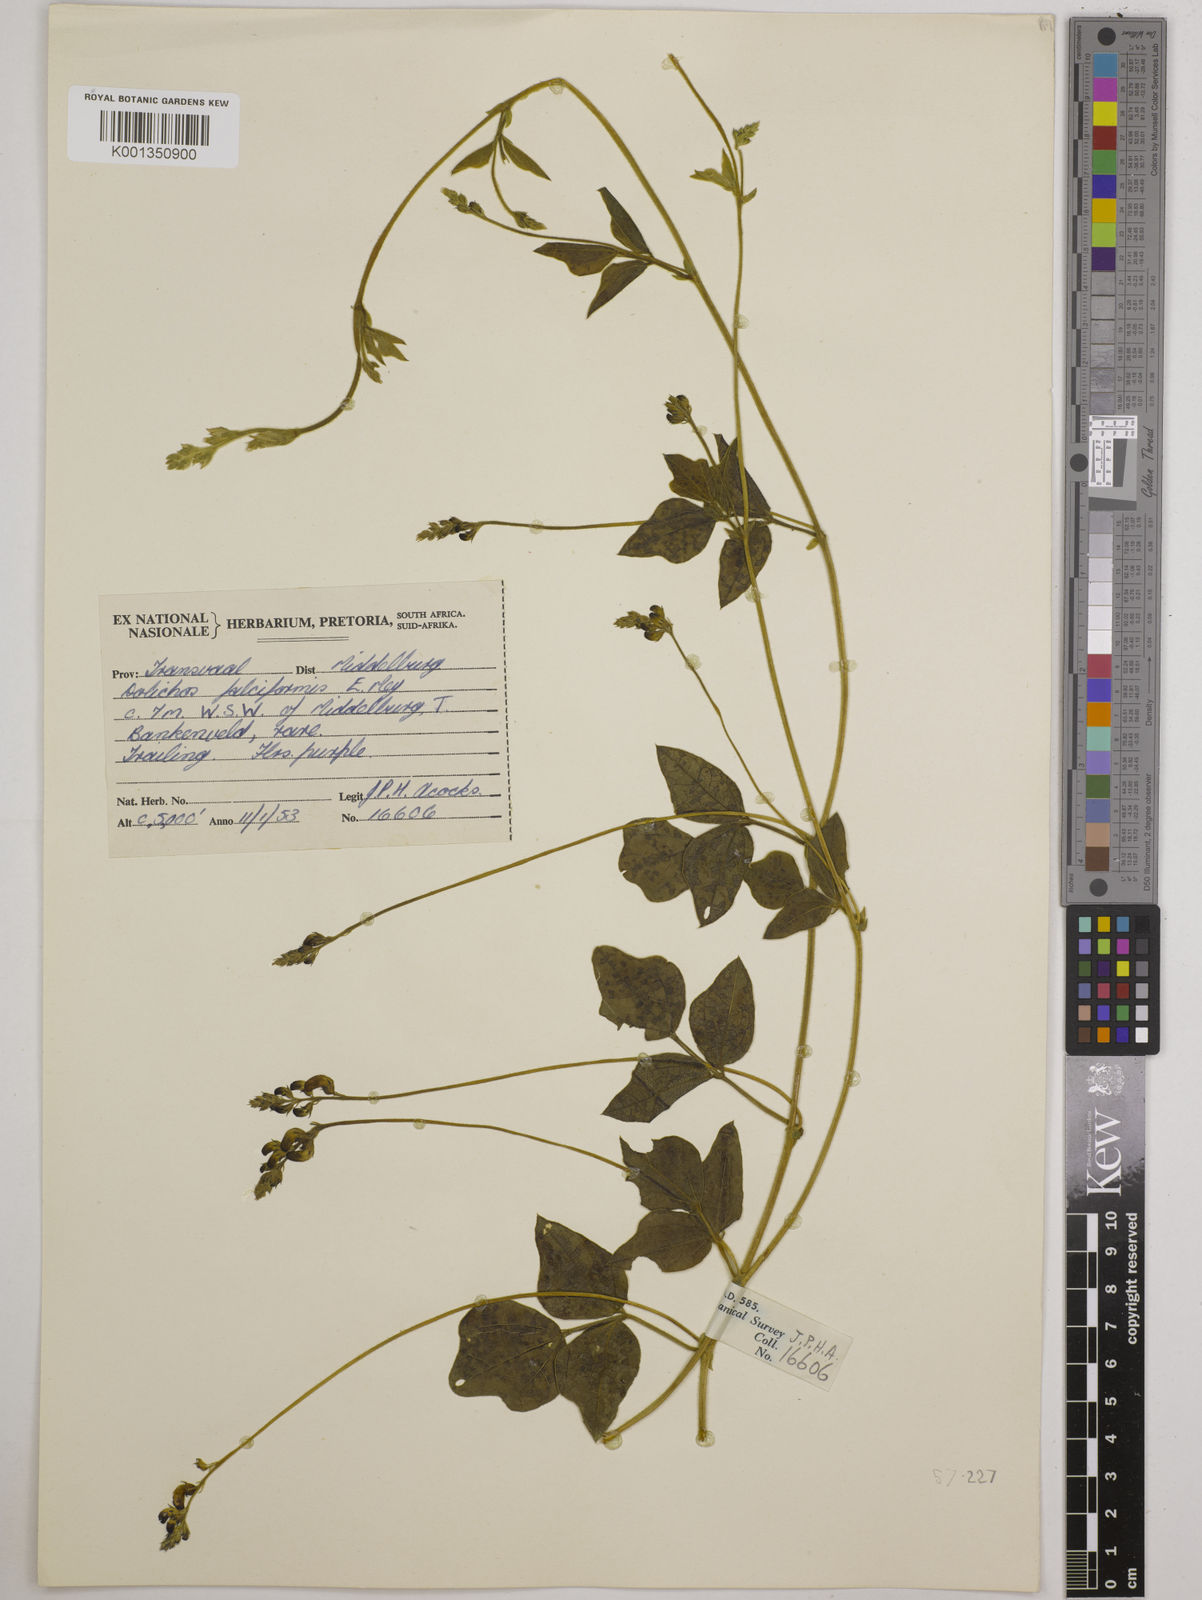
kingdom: Plantae
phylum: Tracheophyta
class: Magnoliopsida
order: Fabales
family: Fabaceae
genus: Dolichos
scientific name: Dolichos falciformis
